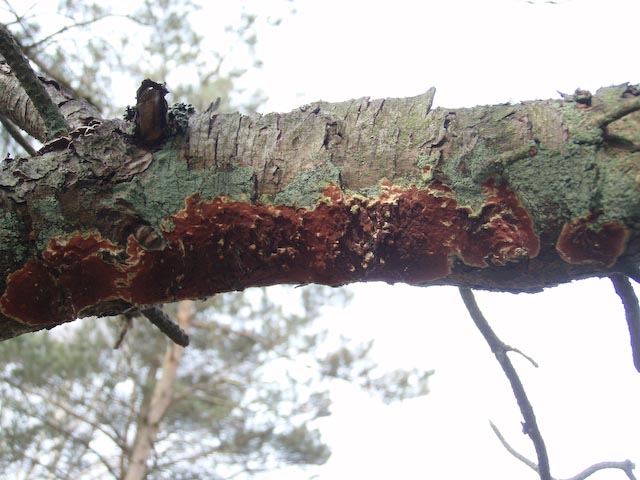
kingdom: Fungi
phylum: Basidiomycota
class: Agaricomycetes
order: Polyporales
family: Irpicaceae
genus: Meruliopsis
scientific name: Meruliopsis taxicola
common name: purpurbrun foldporesvamp
